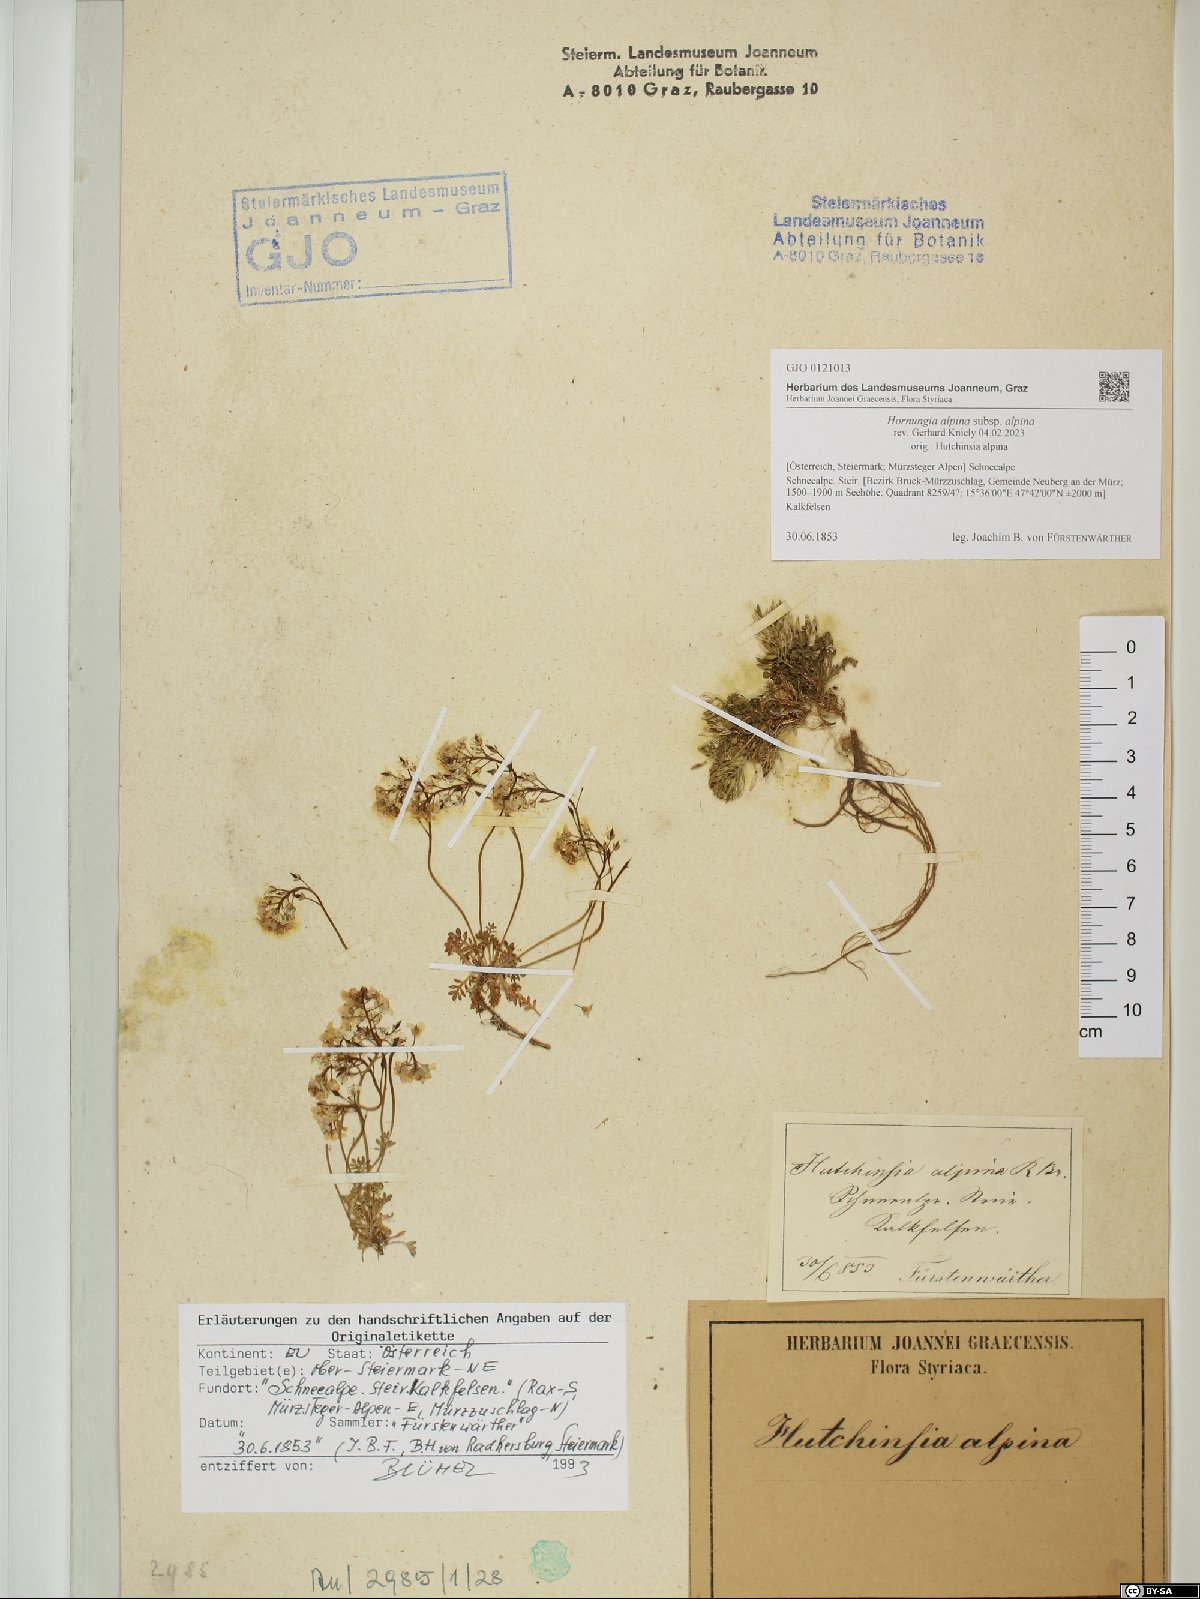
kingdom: Plantae
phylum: Tracheophyta
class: Magnoliopsida
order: Brassicales
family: Brassicaceae
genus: Hornungia
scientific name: Hornungia alpina
